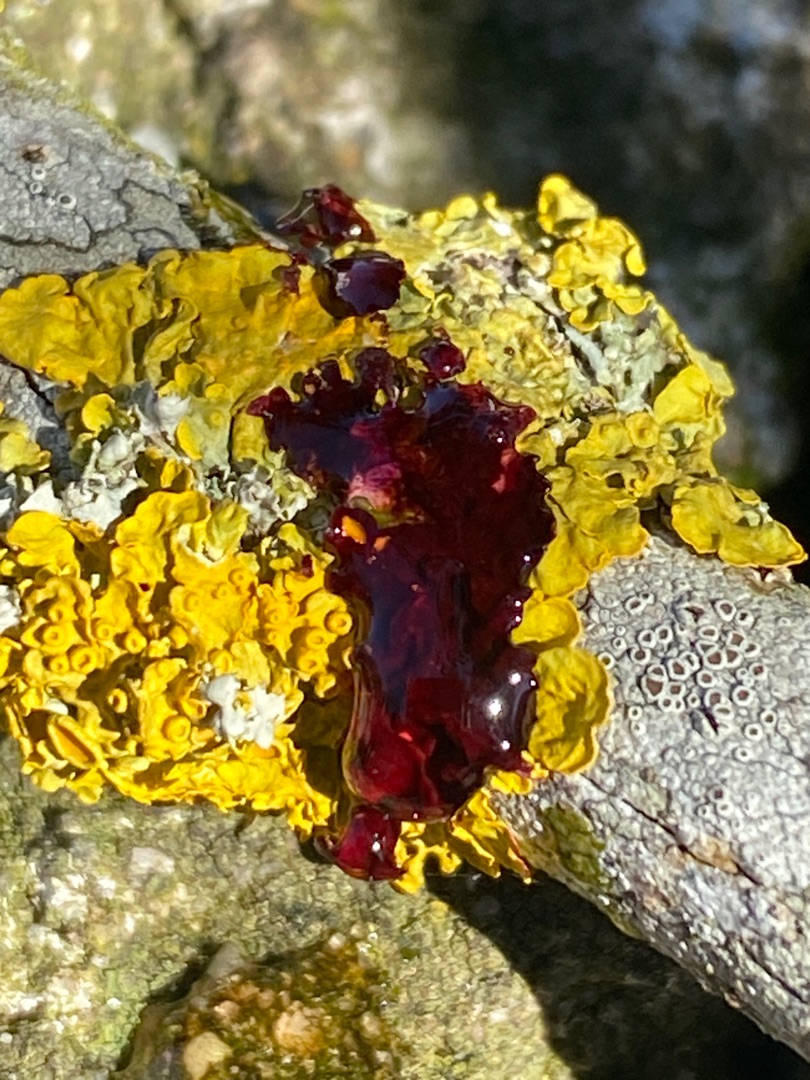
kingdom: Fungi
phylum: Ascomycota
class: Lecanoromycetes
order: Teloschistales
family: Teloschistaceae
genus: Xanthoria
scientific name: Xanthoria parietina
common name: Almindelig væggelav
